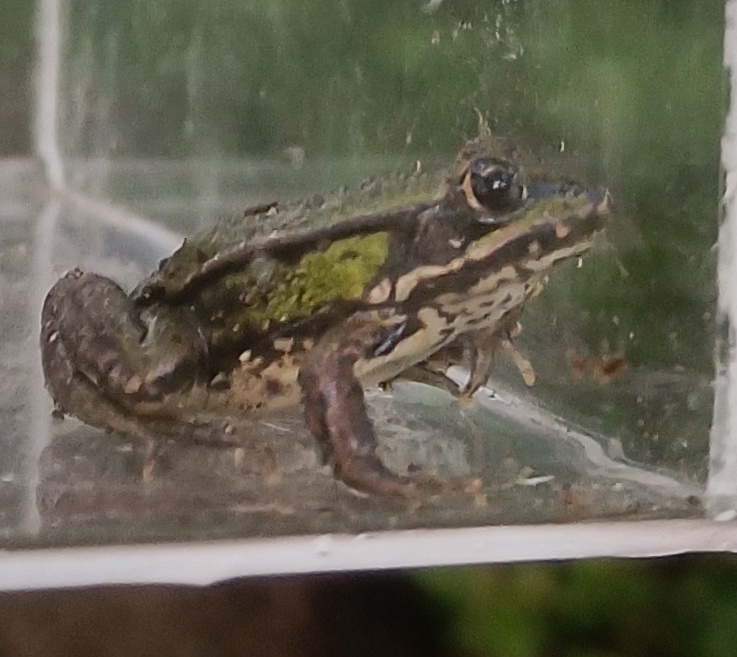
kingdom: Animalia
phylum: Chordata
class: Amphibia
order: Anura
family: Ranidae
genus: Pelophylax
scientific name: Pelophylax lessonae
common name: Grøn frø
